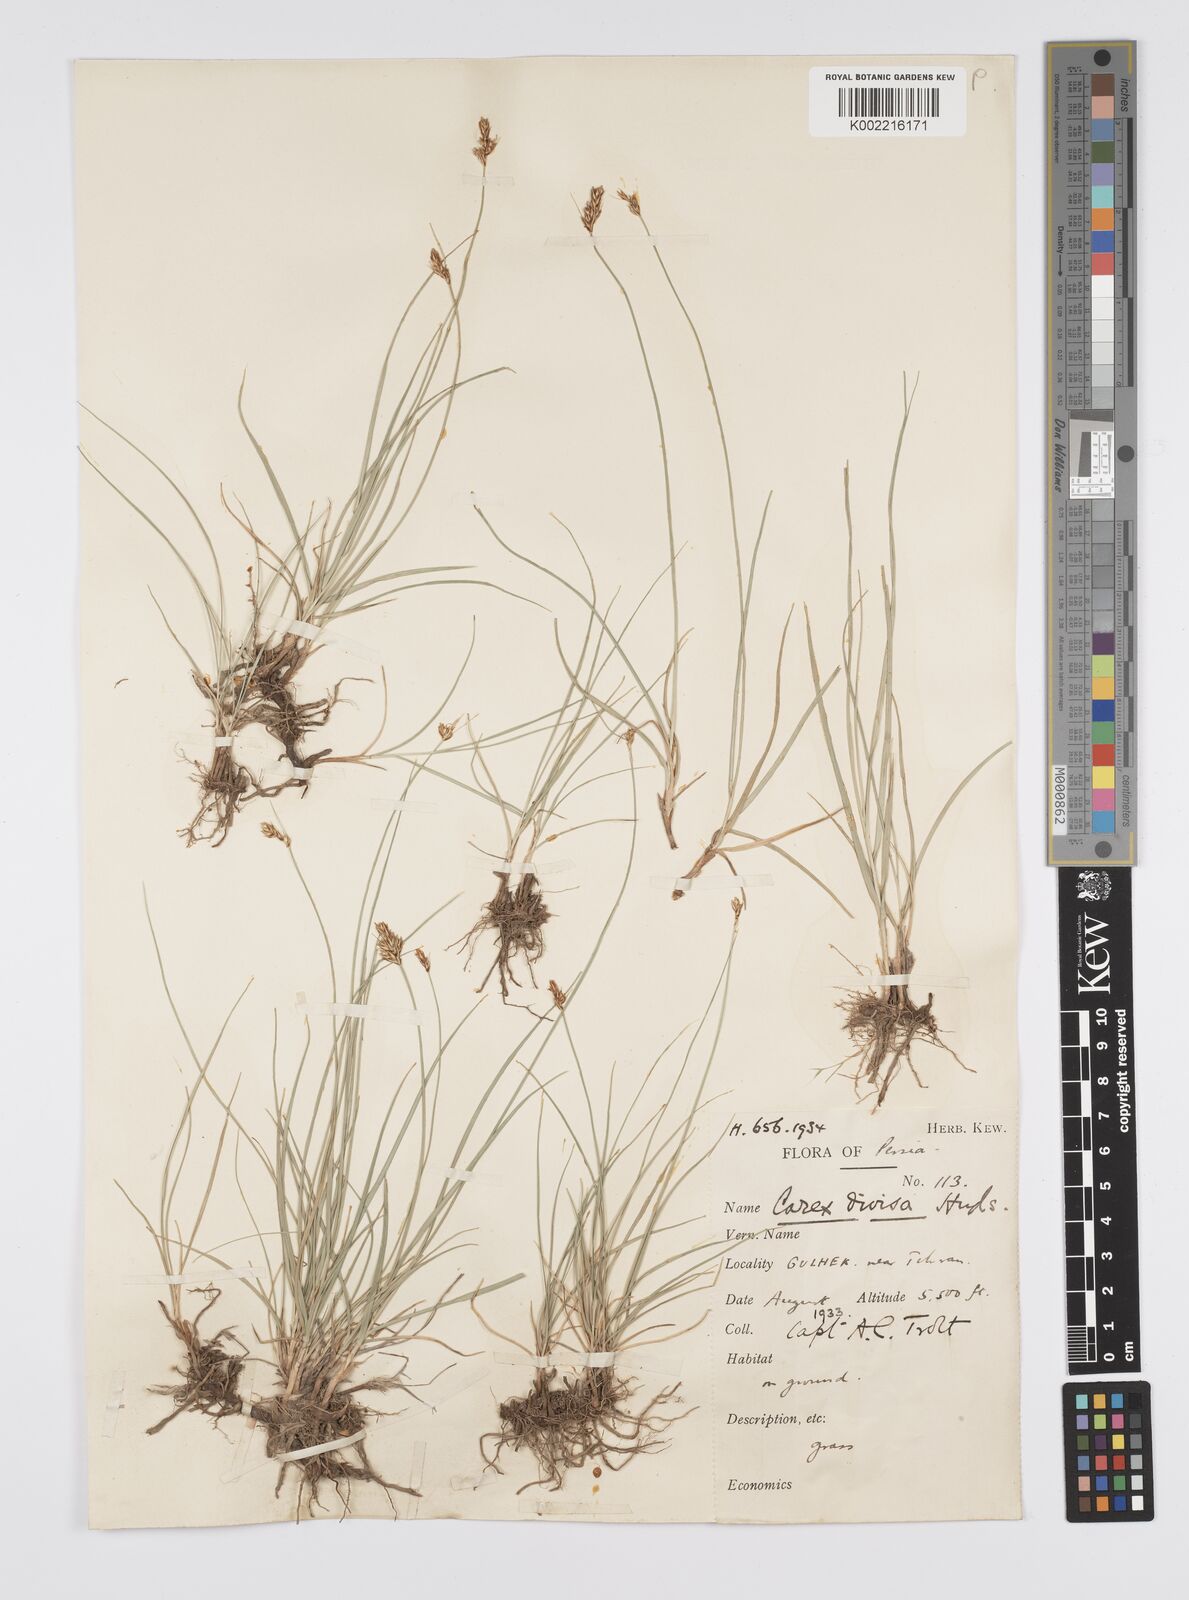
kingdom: Plantae
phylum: Tracheophyta
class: Liliopsida
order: Poales
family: Cyperaceae
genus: Carex
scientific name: Carex divisa
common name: Divided sedge
